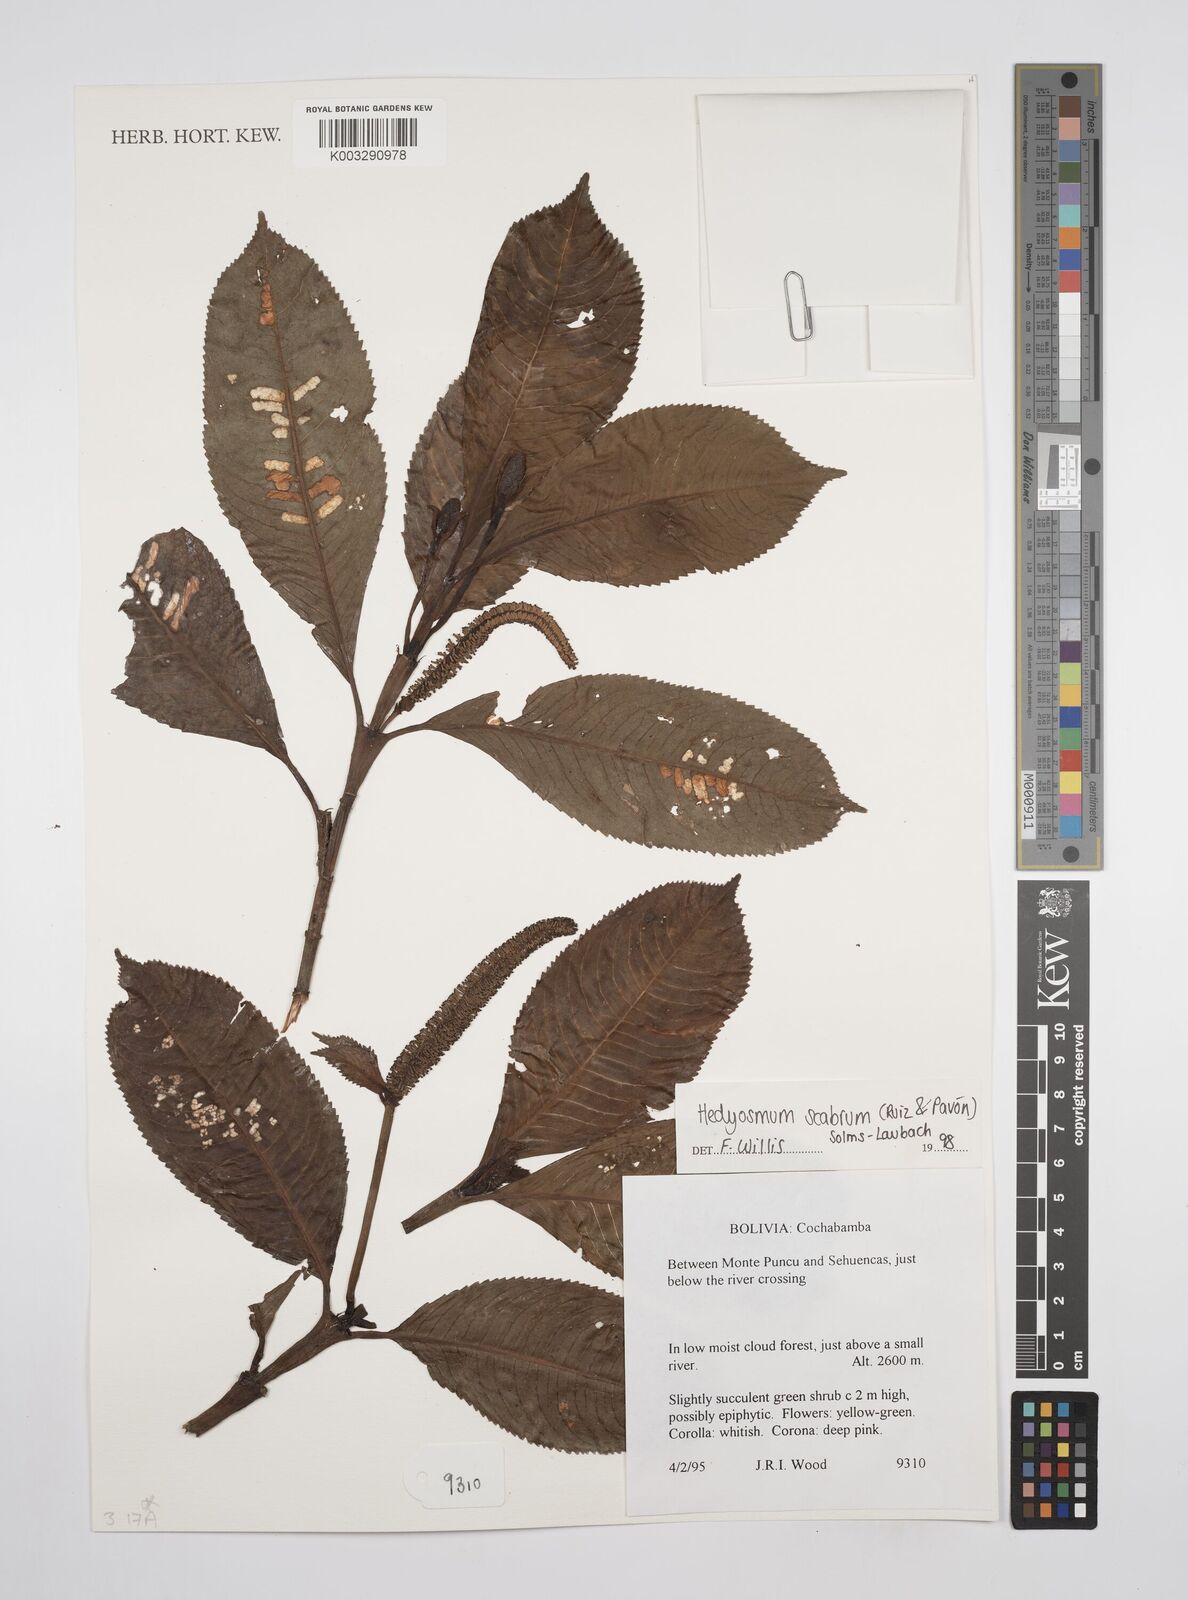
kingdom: Plantae
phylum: Tracheophyta
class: Magnoliopsida
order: Chloranthales
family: Chloranthaceae
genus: Hedyosmum
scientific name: Hedyosmum scabrum
